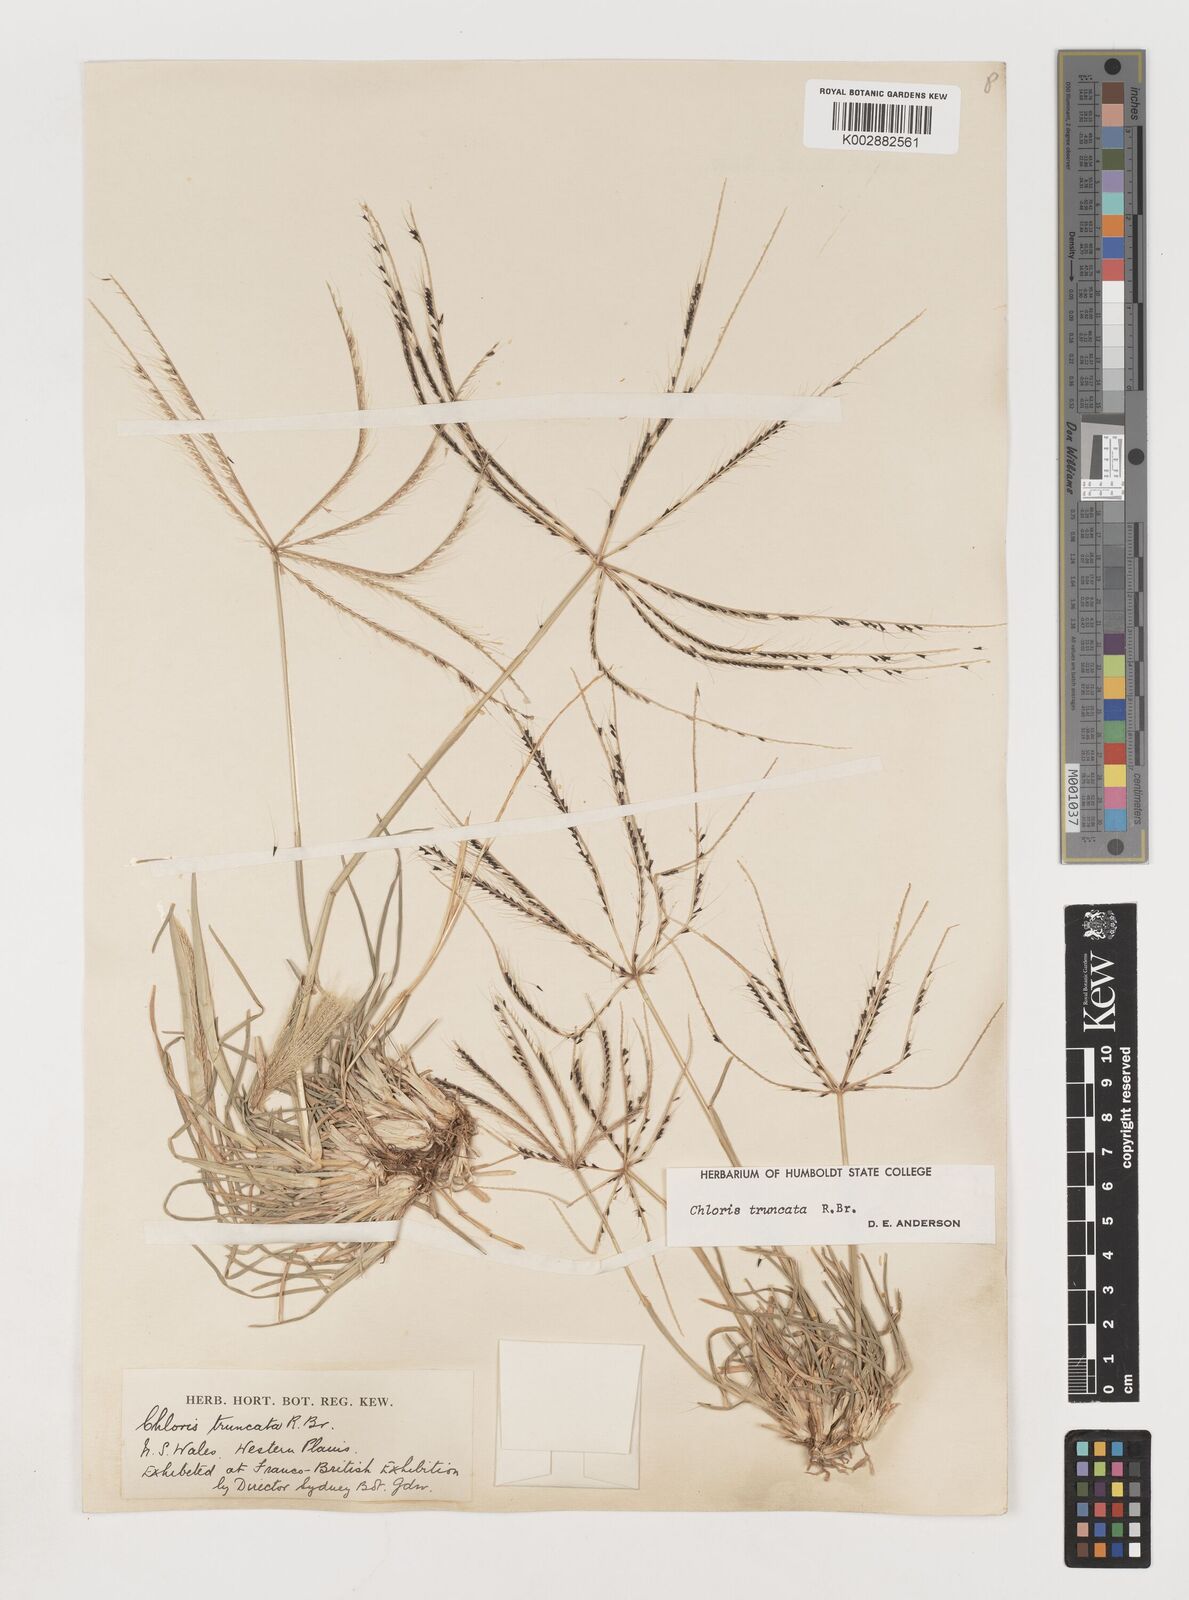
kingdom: Plantae
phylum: Tracheophyta
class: Liliopsida
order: Poales
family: Poaceae
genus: Chloris
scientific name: Chloris truncata
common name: Windmill-grass
